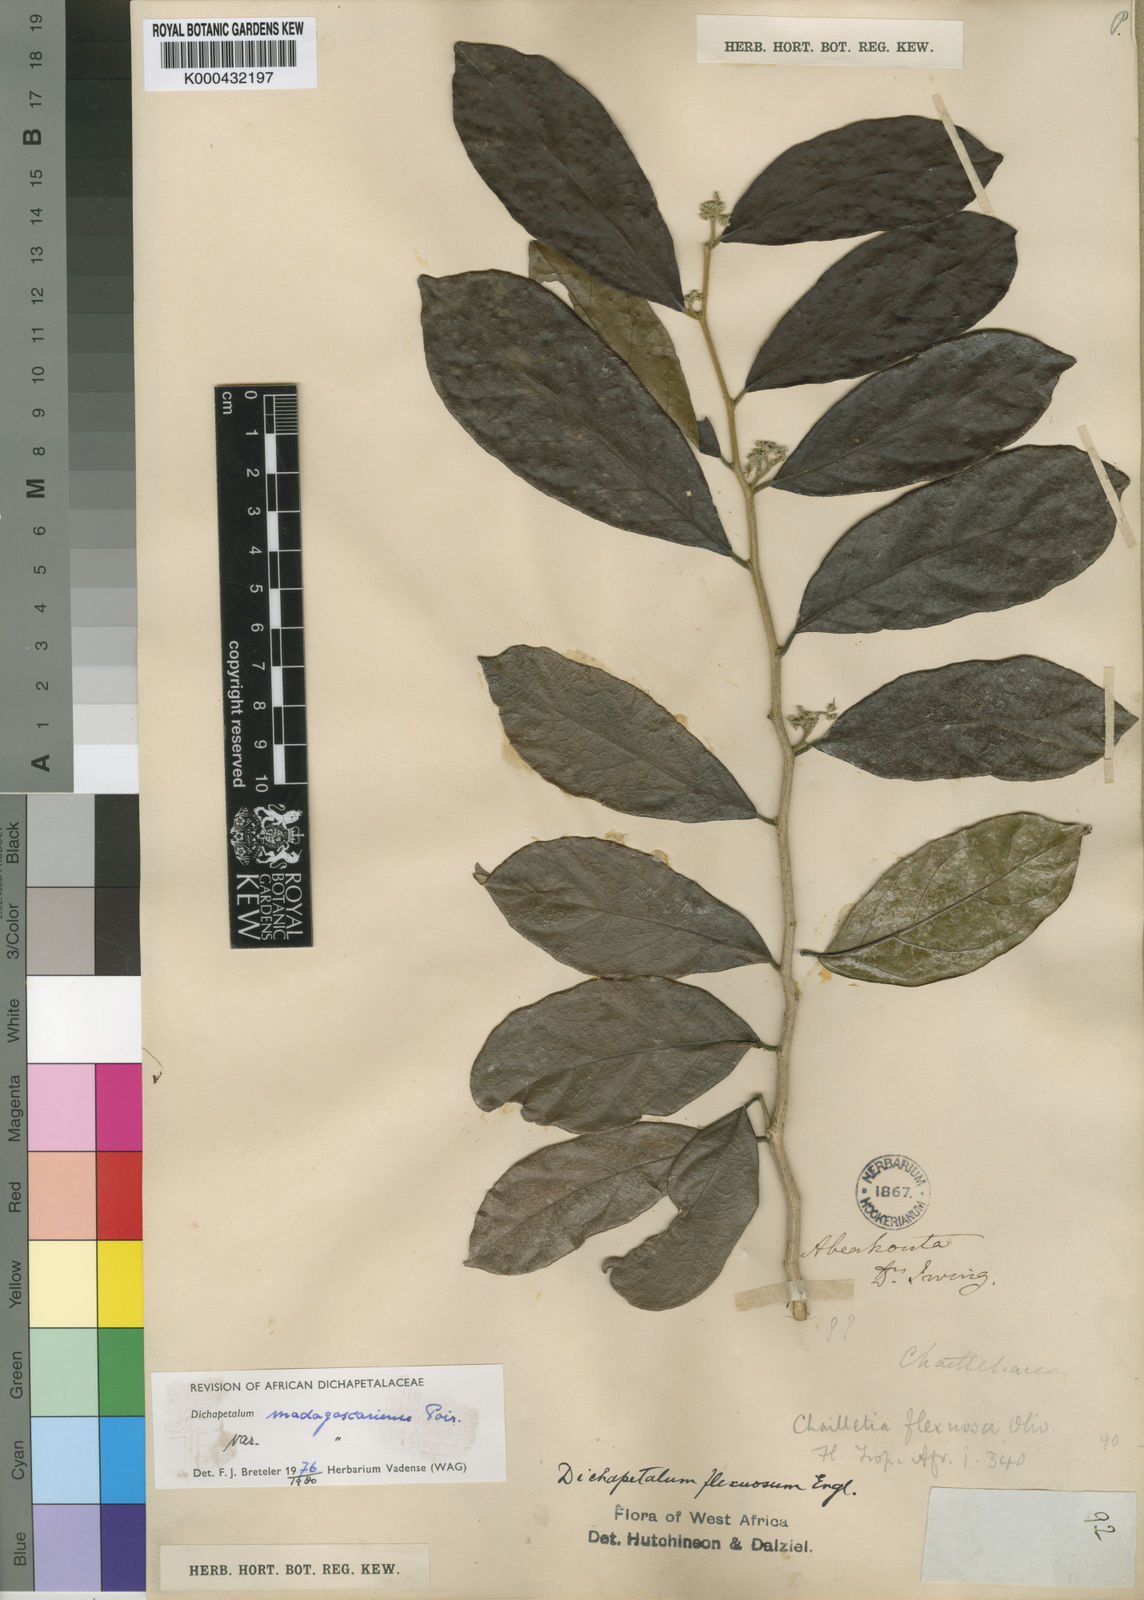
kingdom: Plantae
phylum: Tracheophyta
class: Magnoliopsida
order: Malpighiales
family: Dichapetalaceae
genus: Dichapetalum
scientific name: Dichapetalum madagascariense
